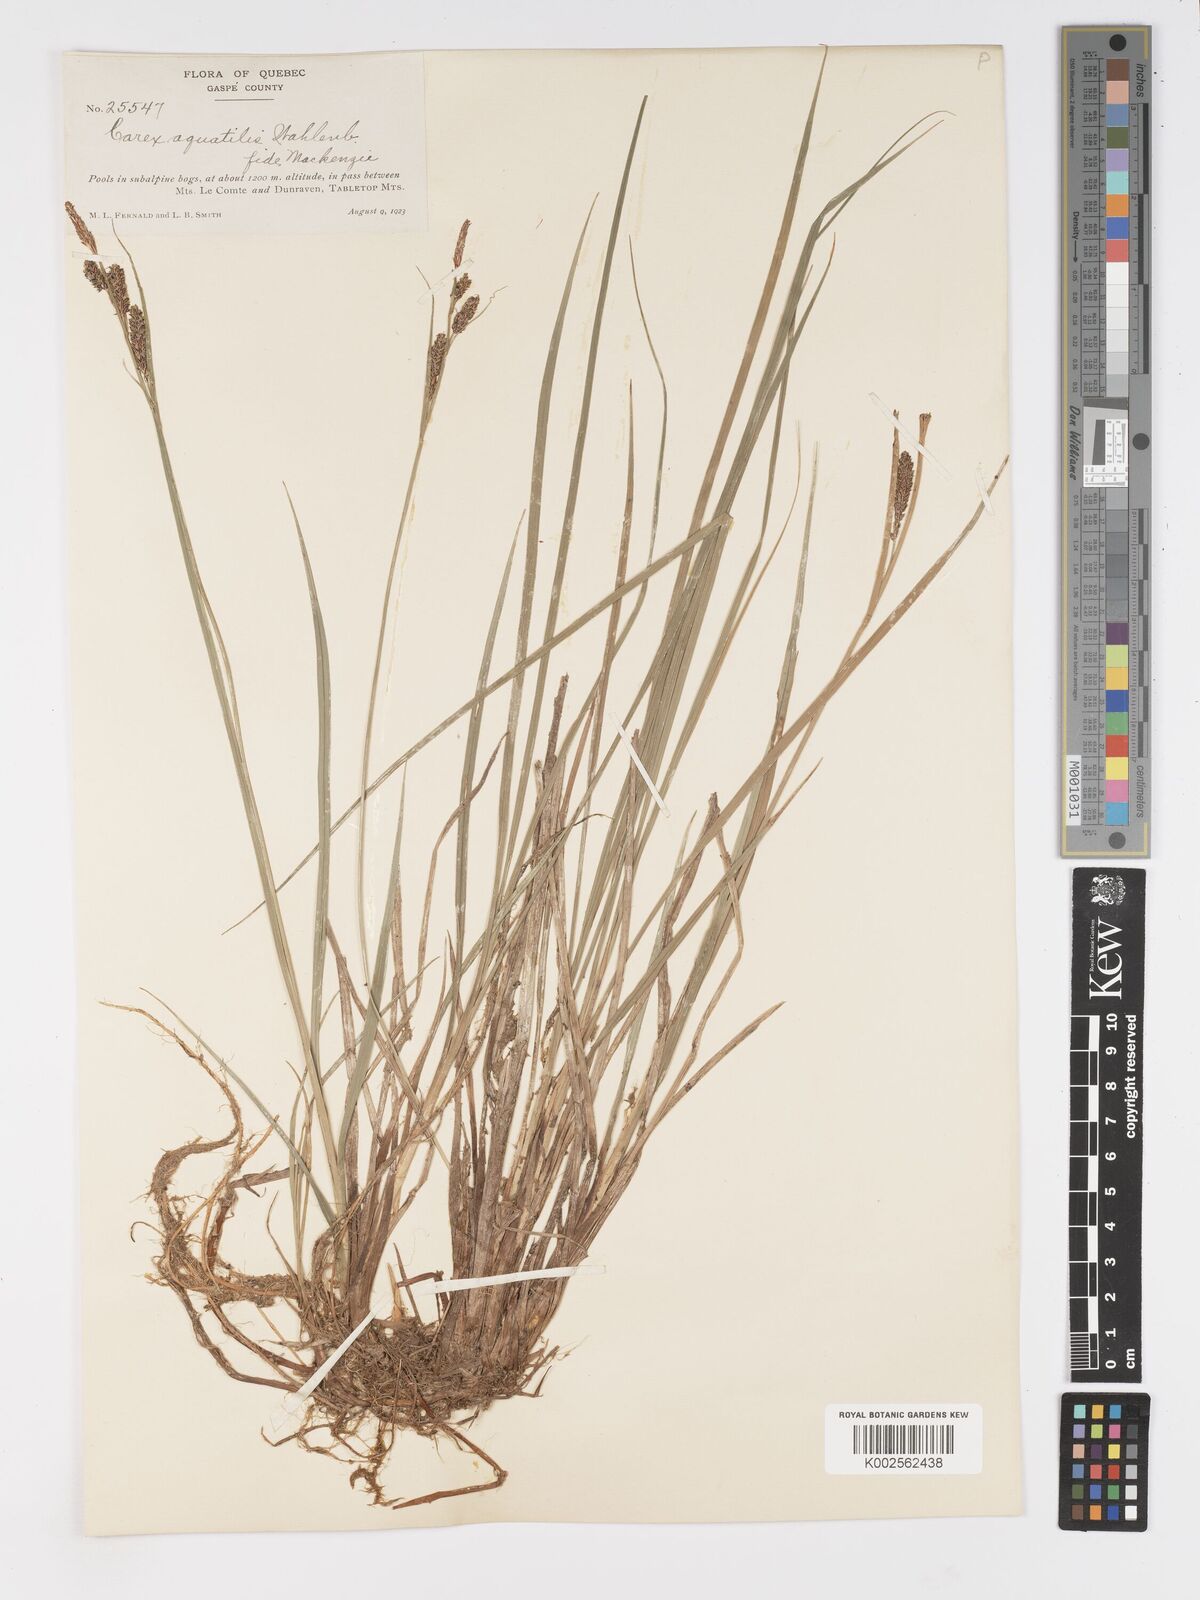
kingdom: Plantae
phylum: Tracheophyta
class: Liliopsida
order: Poales
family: Cyperaceae
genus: Carex
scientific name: Carex
